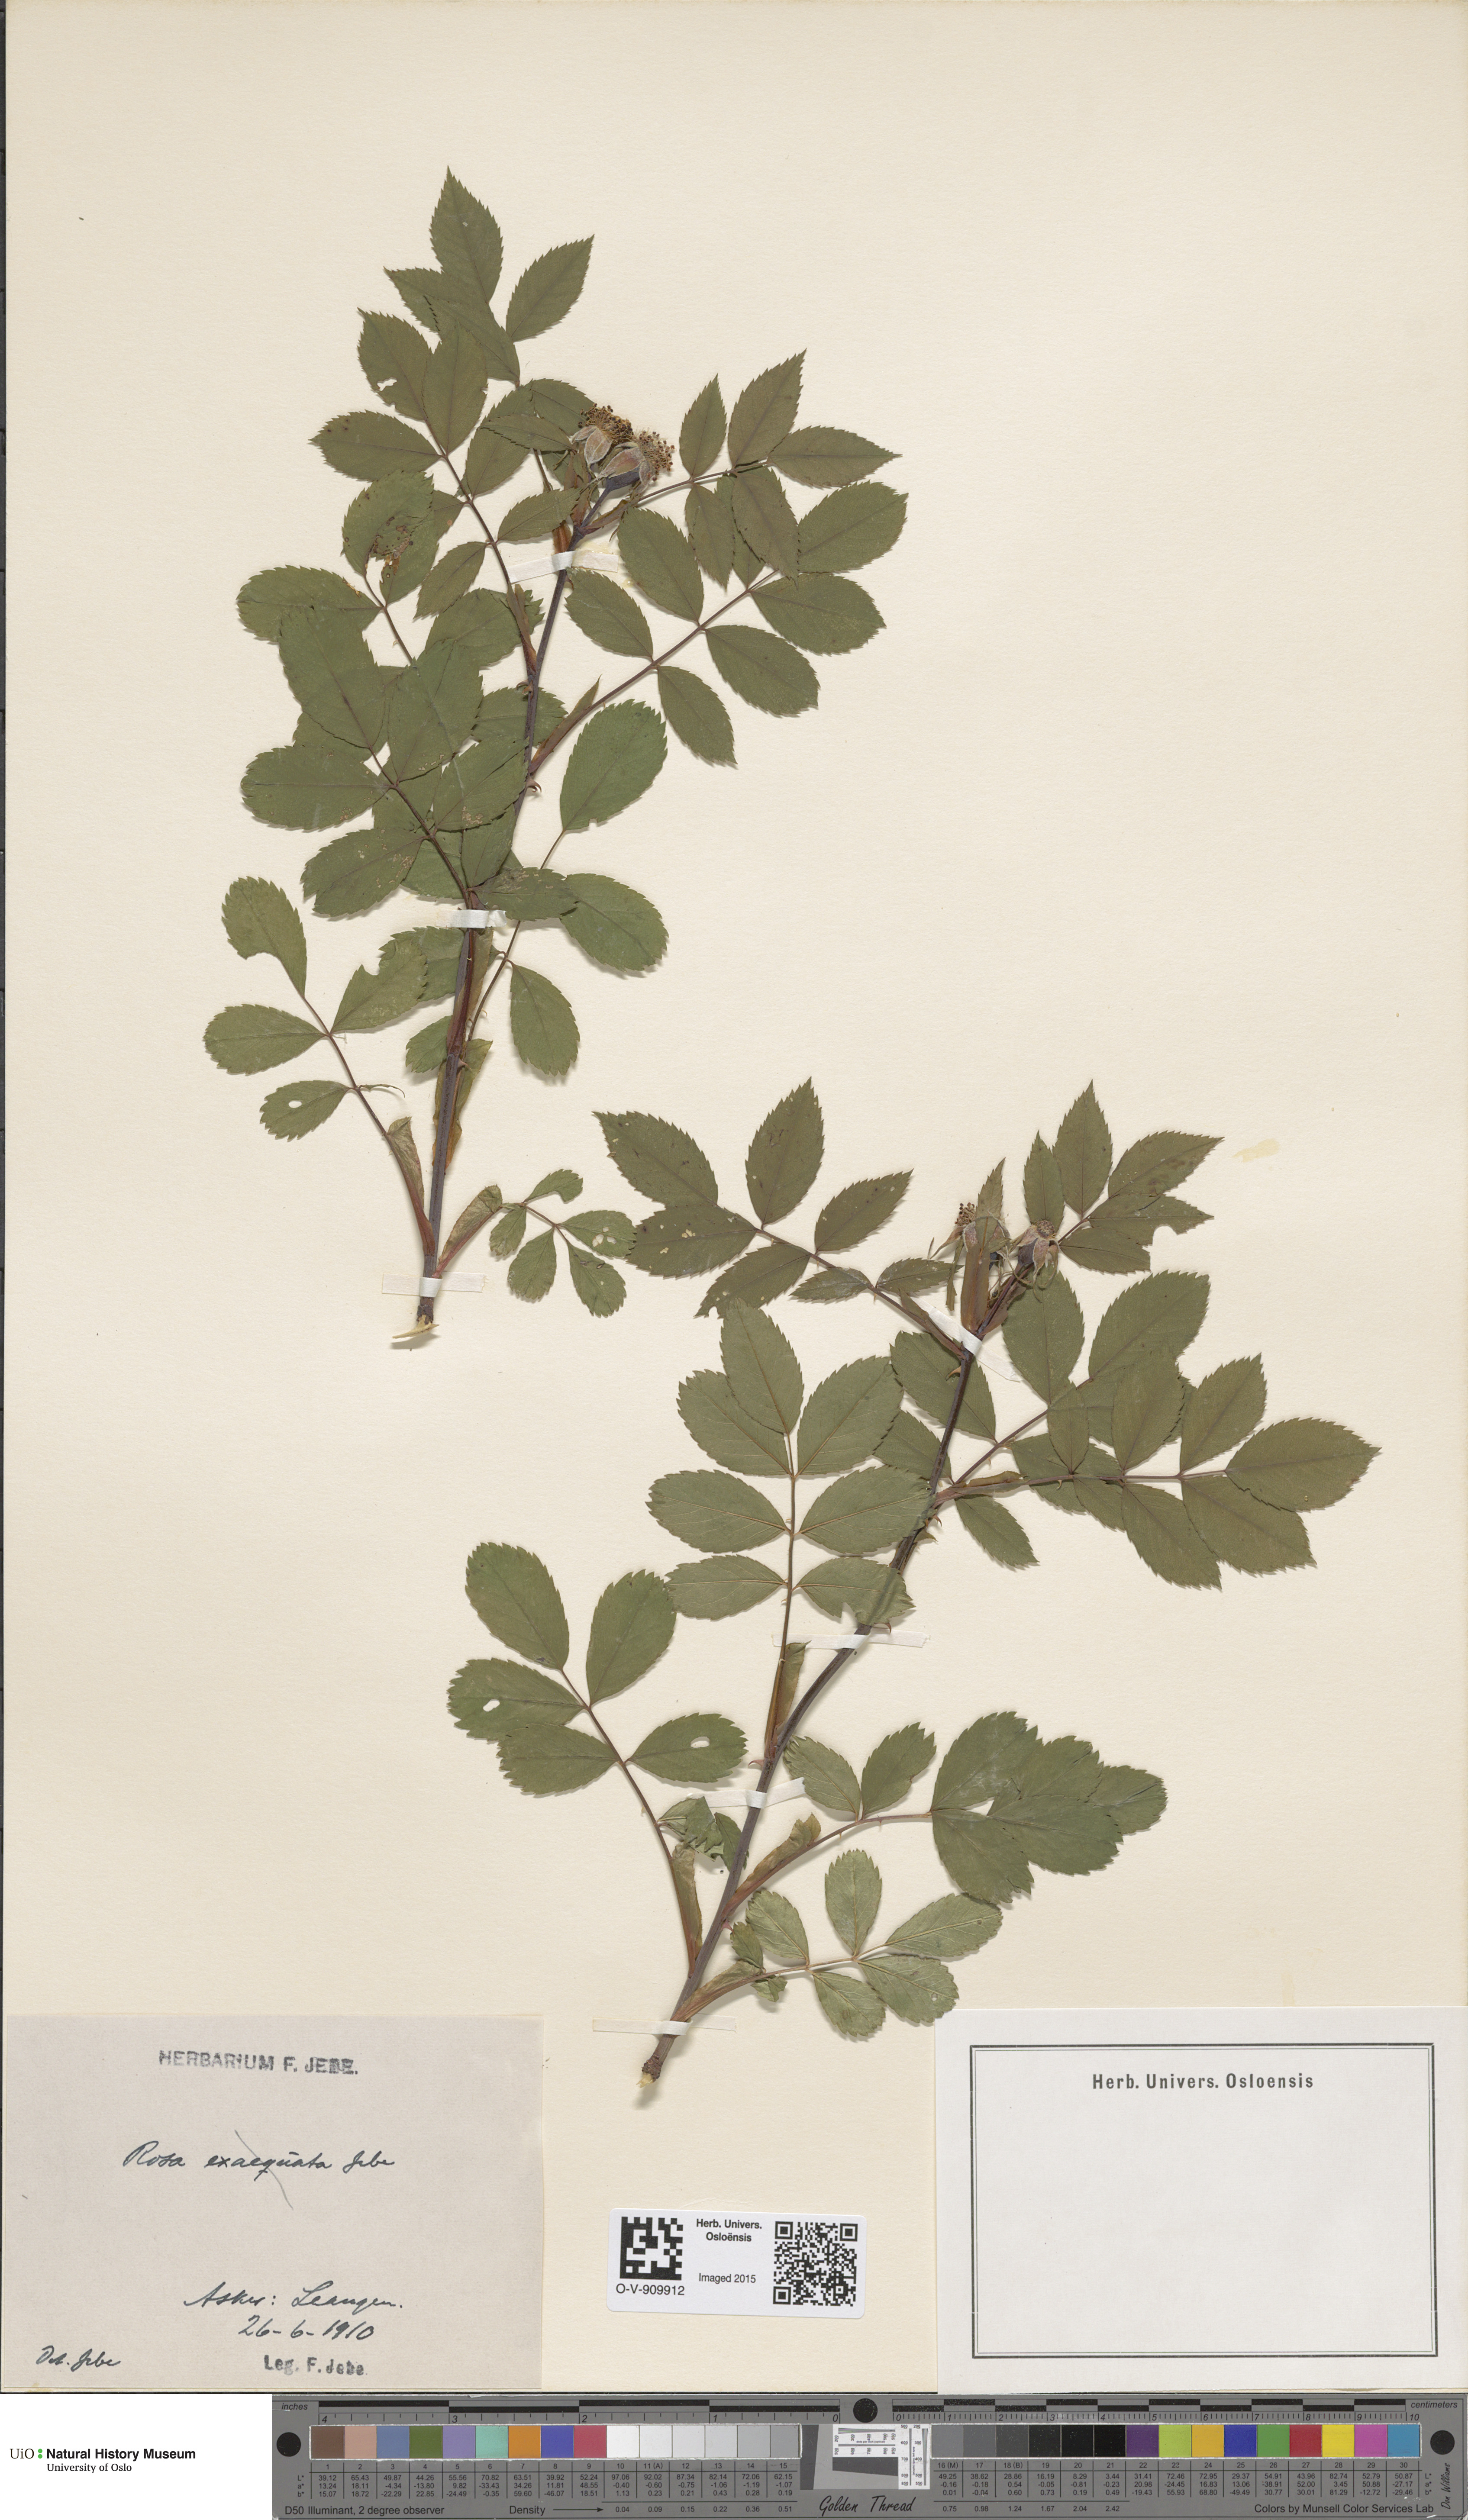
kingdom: Plantae
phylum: Tracheophyta
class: Magnoliopsida
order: Rosales
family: Rosaceae
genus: Rosa
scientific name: Rosa
